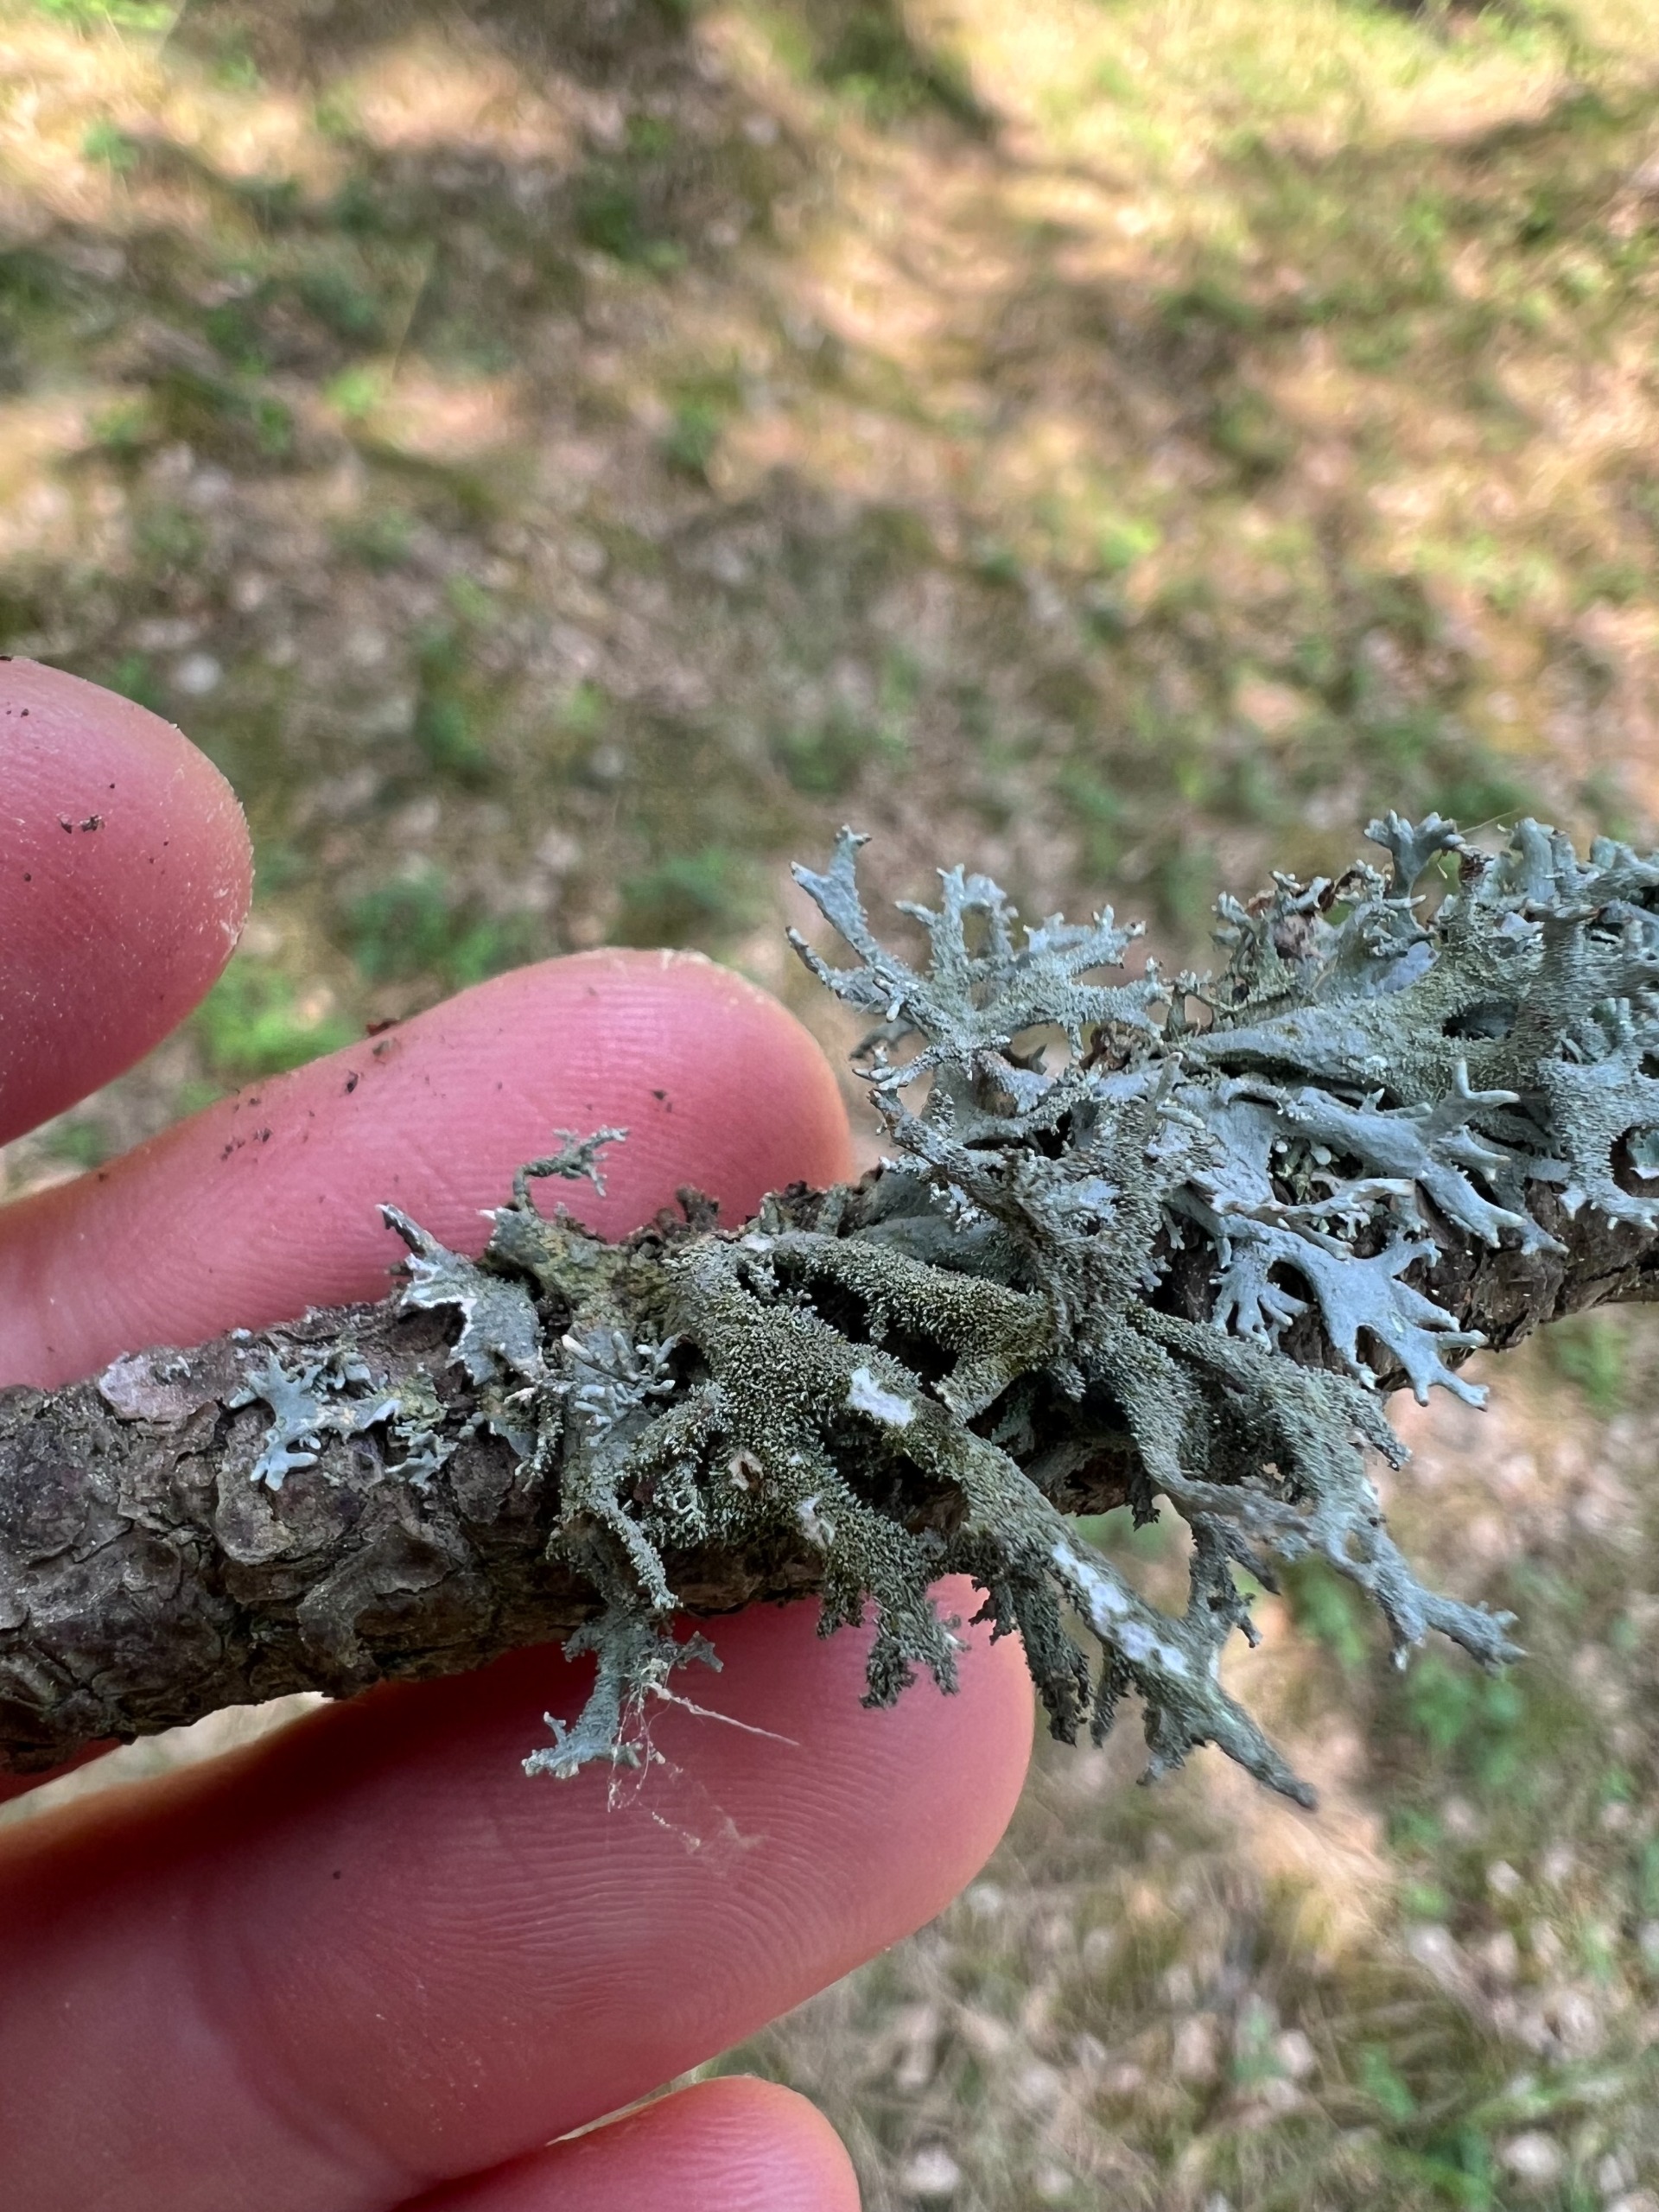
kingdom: Fungi
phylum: Ascomycota
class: Lecanoromycetes
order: Lecanorales
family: Parmeliaceae
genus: Pseudevernia
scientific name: Pseudevernia furfuracea
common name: Grå fyrrelav
